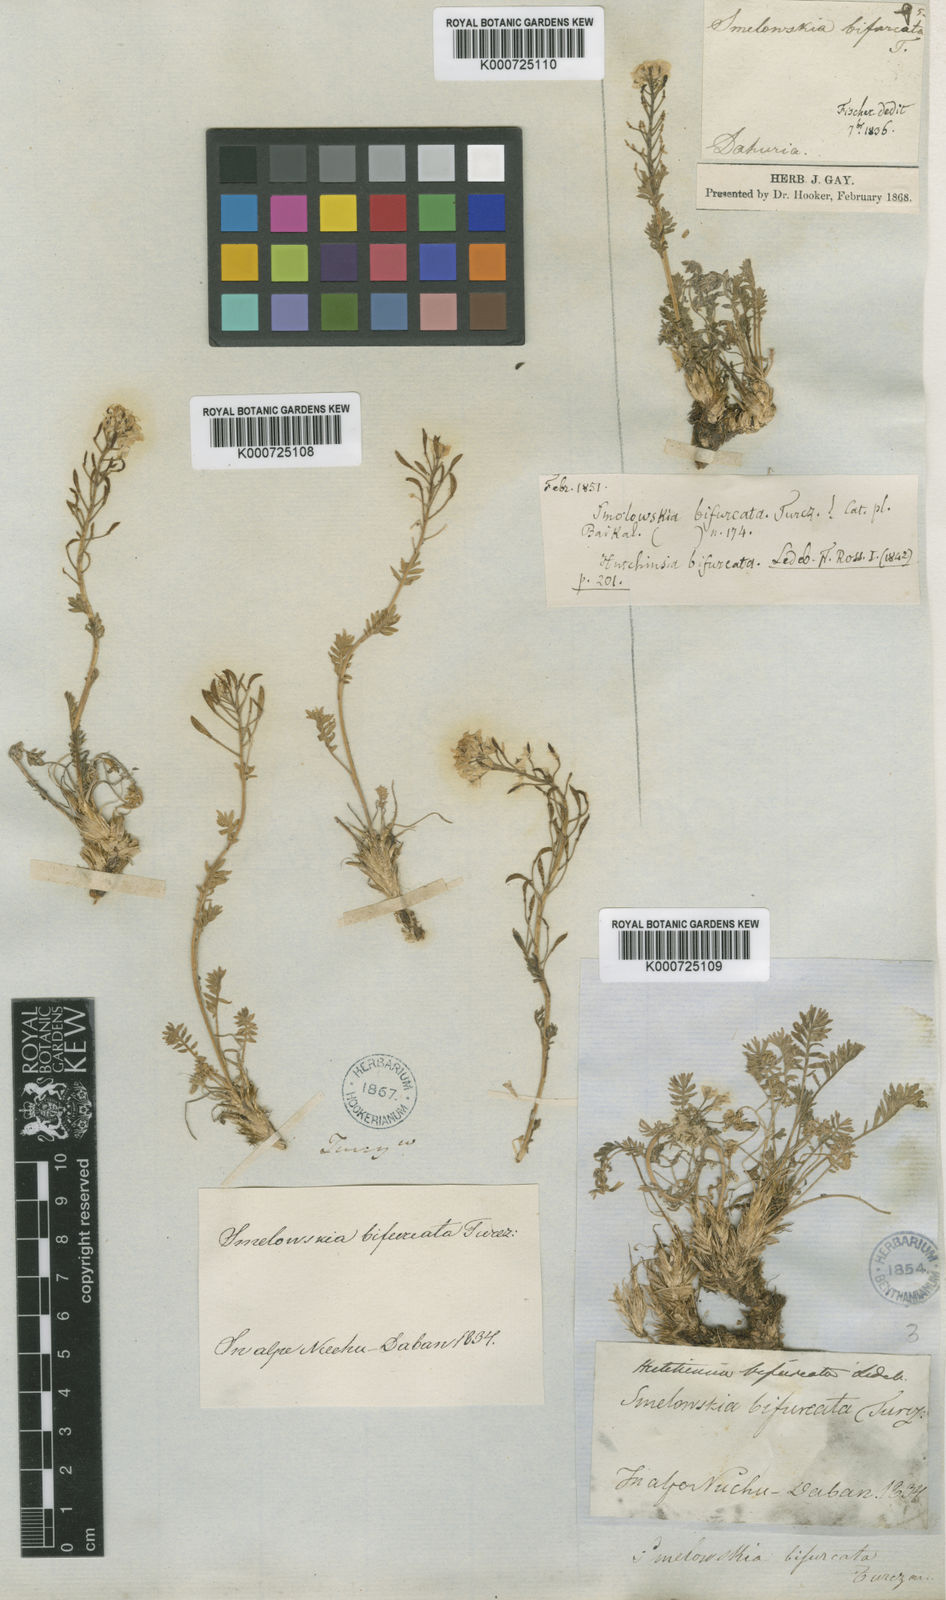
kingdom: Plantae
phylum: Tracheophyta
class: Magnoliopsida
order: Brassicales
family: Brassicaceae
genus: Smelowskia
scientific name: Smelowskia
